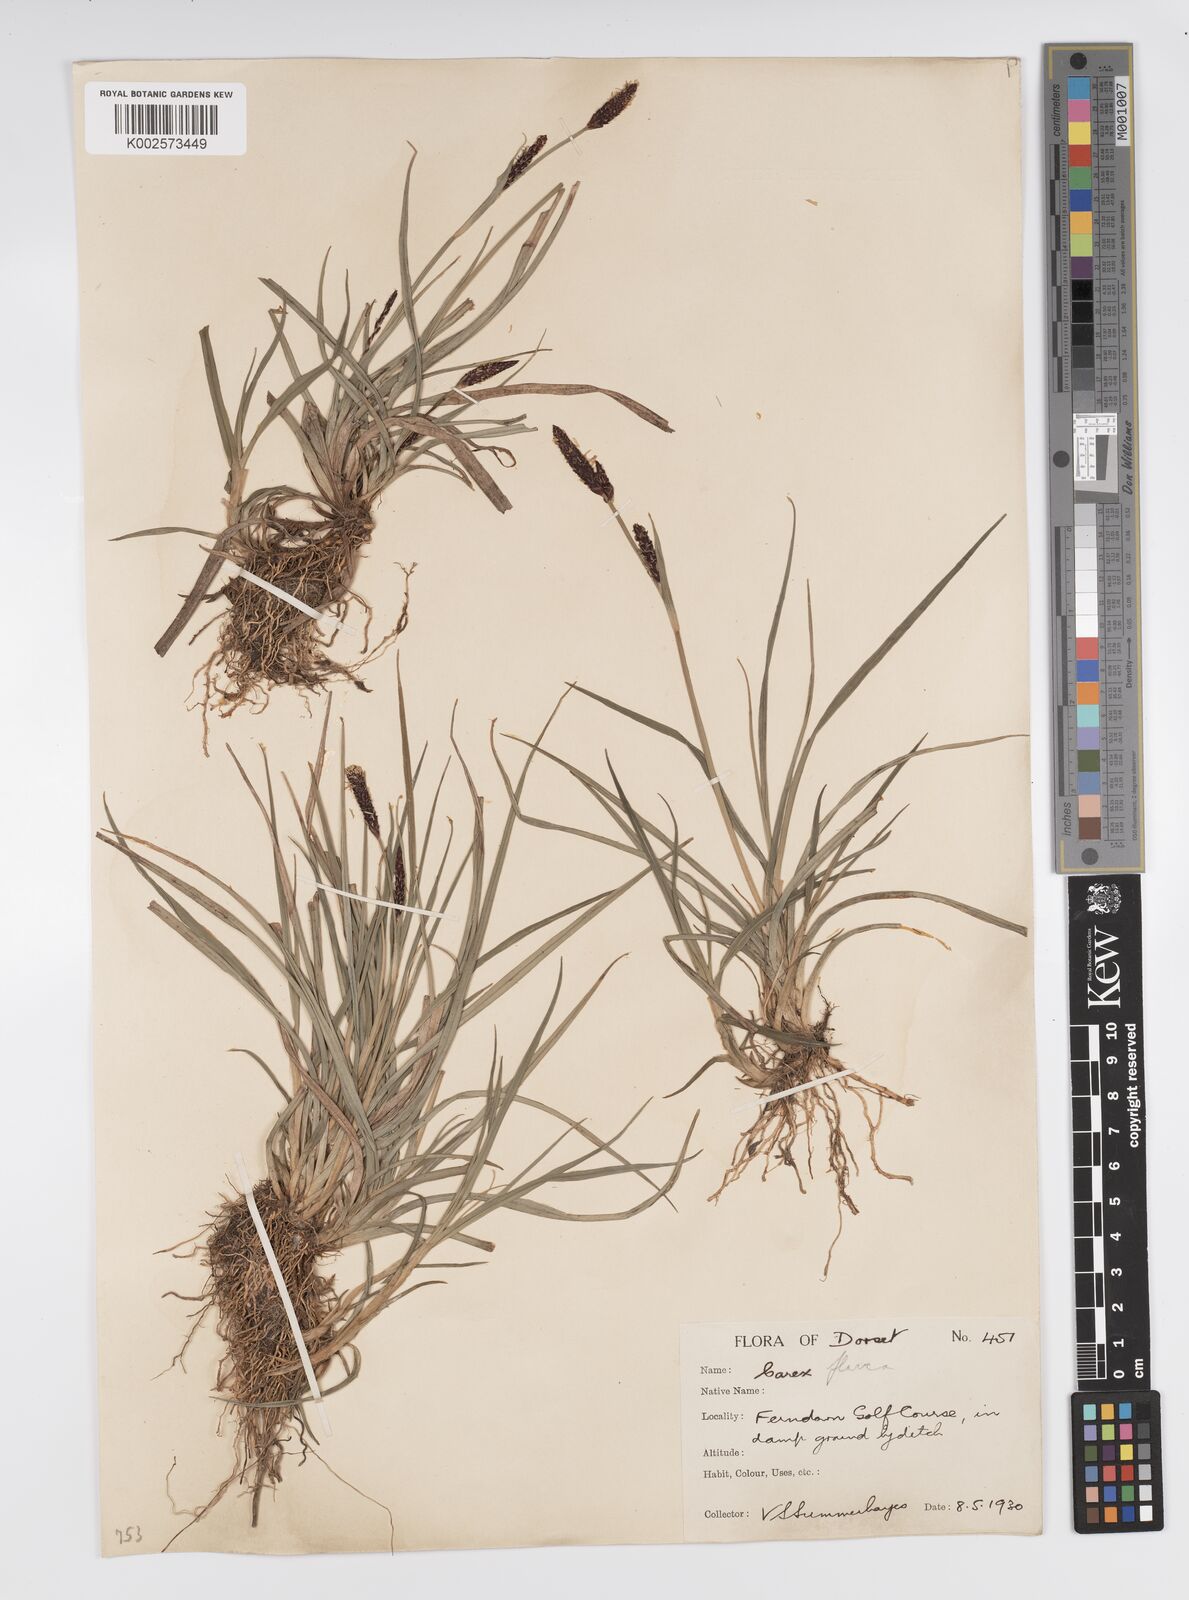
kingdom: Plantae
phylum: Tracheophyta
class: Liliopsida
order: Poales
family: Cyperaceae
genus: Carex
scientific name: Carex panicea
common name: Carnation sedge
